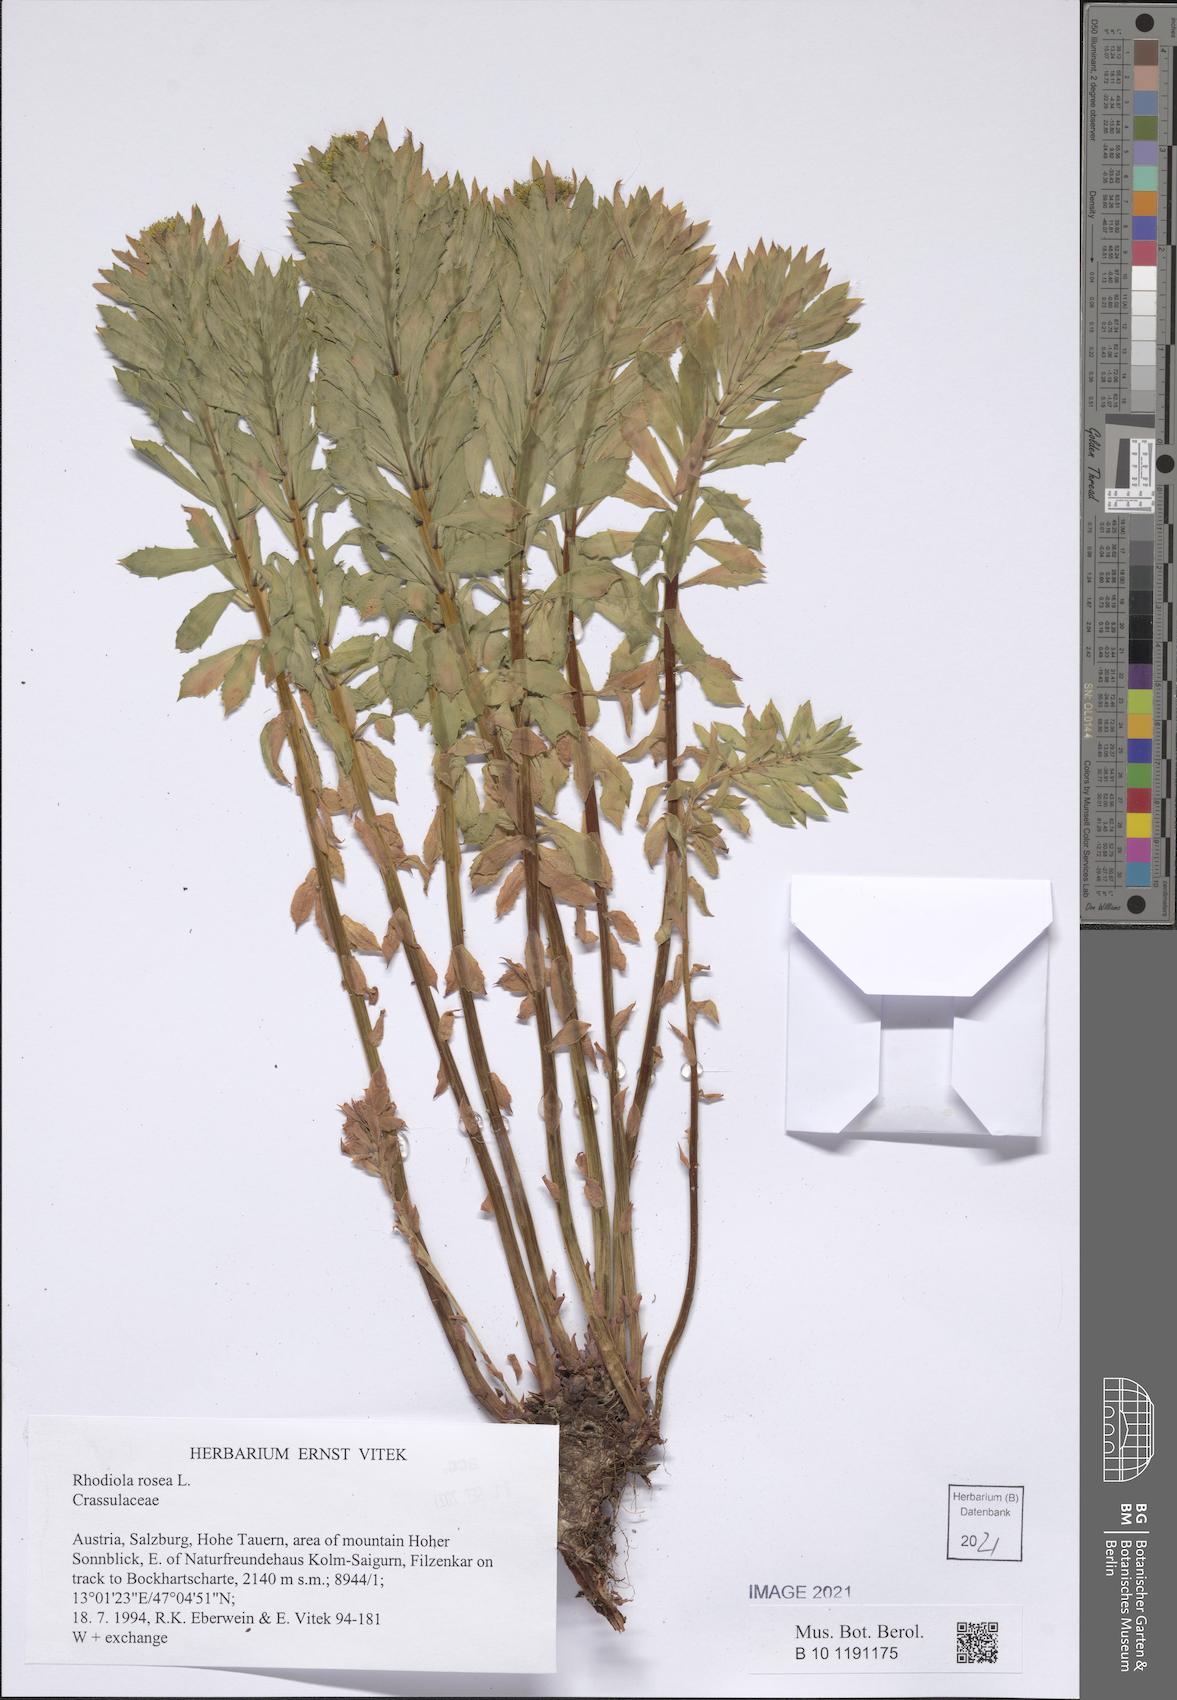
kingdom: Plantae
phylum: Tracheophyta
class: Magnoliopsida
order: Saxifragales
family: Crassulaceae
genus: Rhodiola
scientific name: Rhodiola rosea
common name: Roseroot
